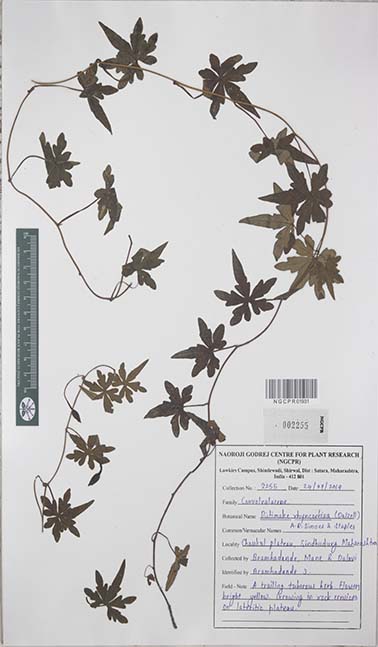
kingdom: Plantae
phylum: Tracheophyta
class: Magnoliopsida
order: Solanales
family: Convolvulaceae
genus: Distimake
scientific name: Distimake rhynchorrhizus
